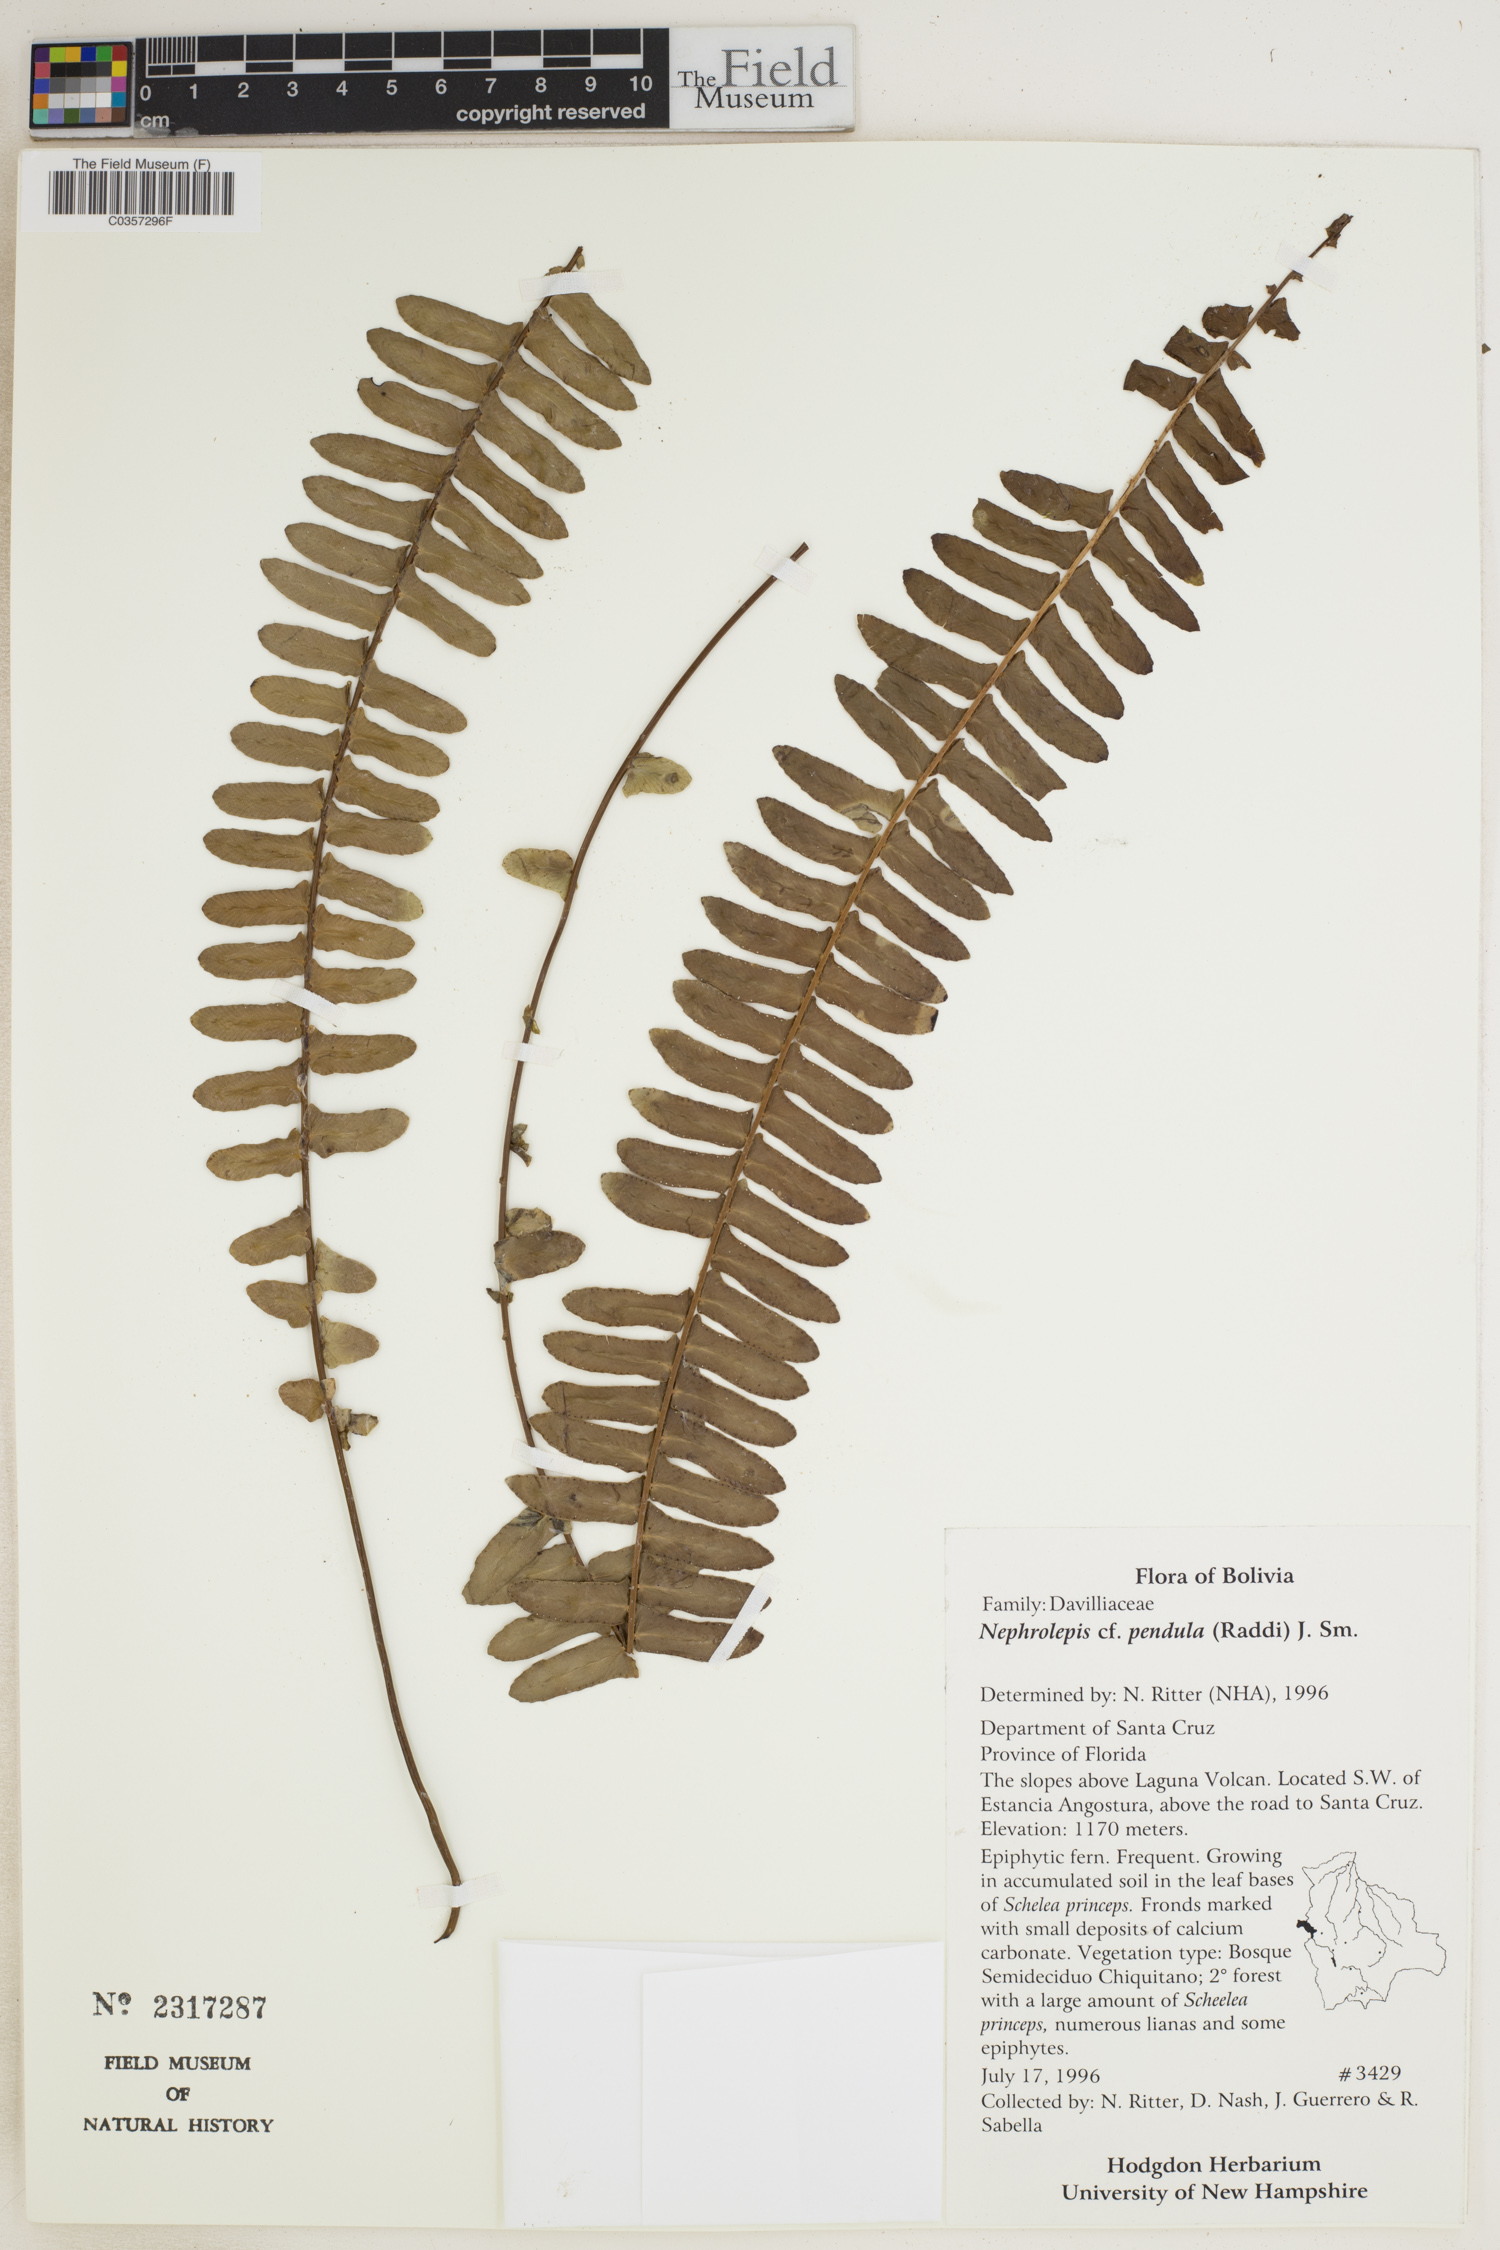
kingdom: Plantae
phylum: Tracheophyta
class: Polypodiopsida
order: Polypodiales
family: Nephrolepidaceae
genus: Nephrolepis
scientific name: Nephrolepis pendula
